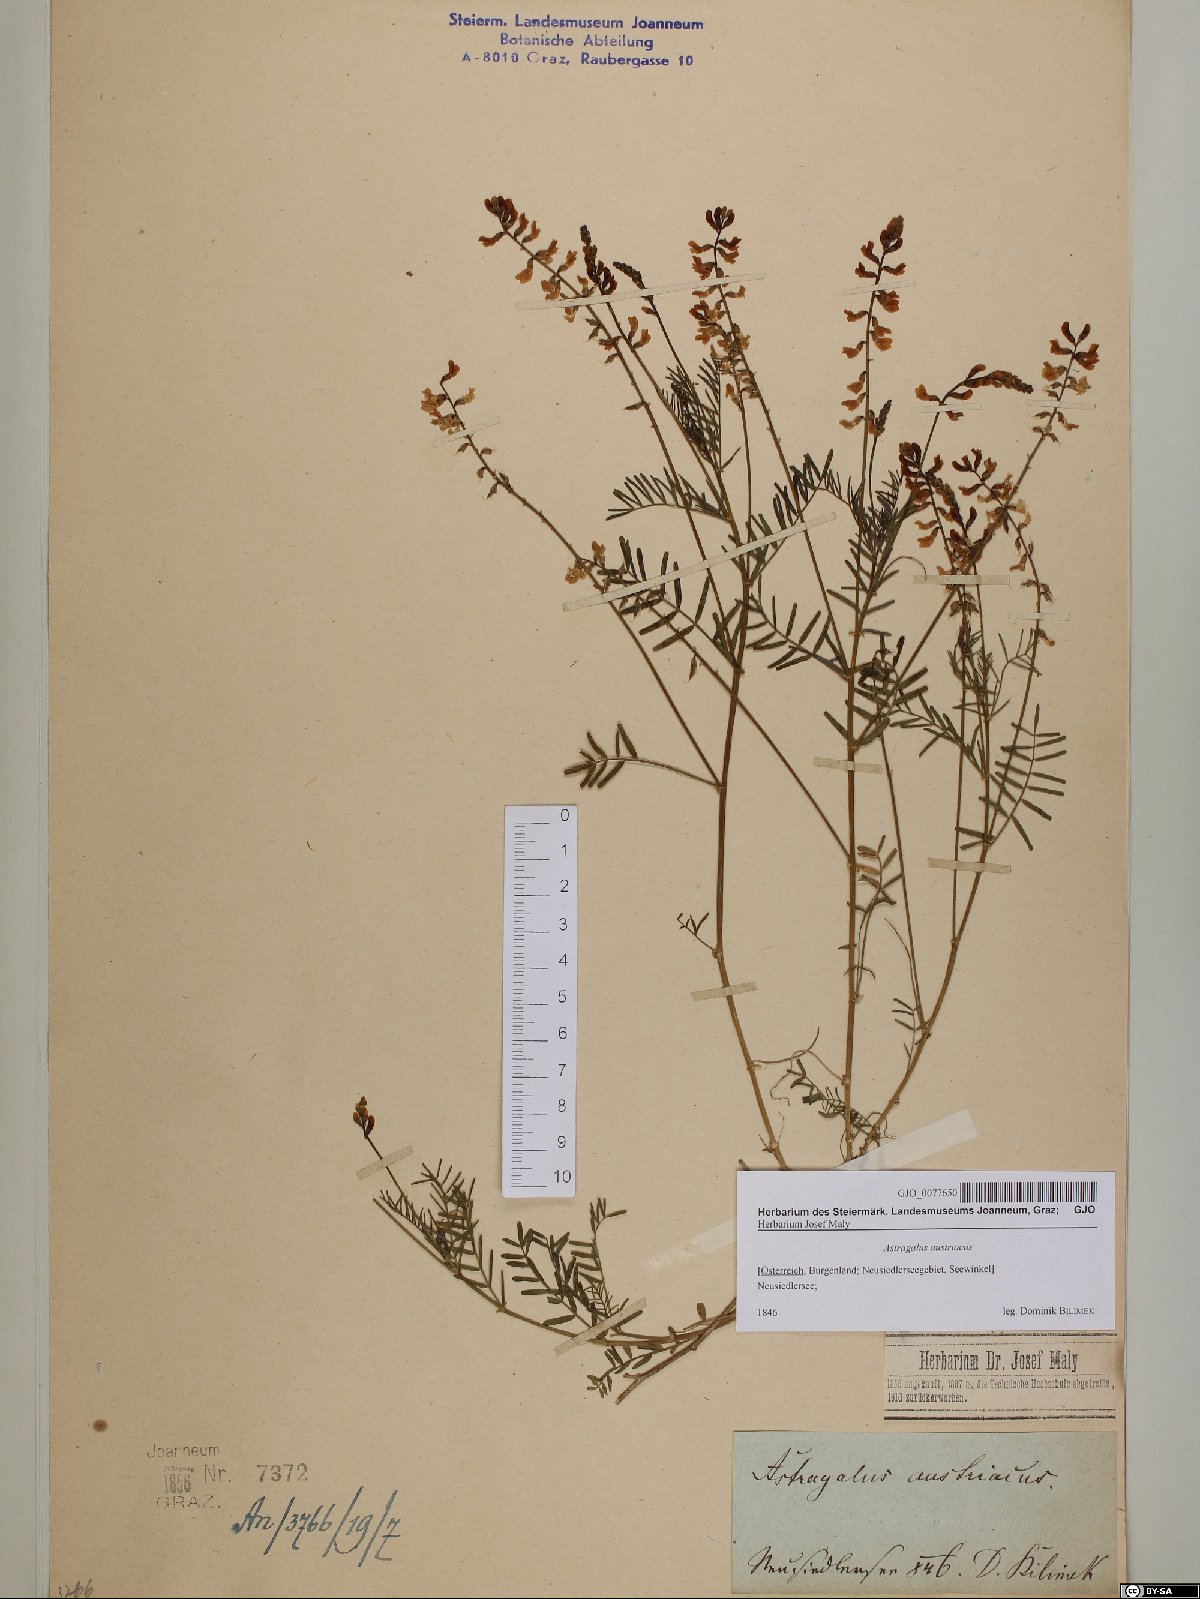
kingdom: Plantae
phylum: Tracheophyta
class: Magnoliopsida
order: Fabales
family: Fabaceae
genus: Astragalus
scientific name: Astragalus austriacus
